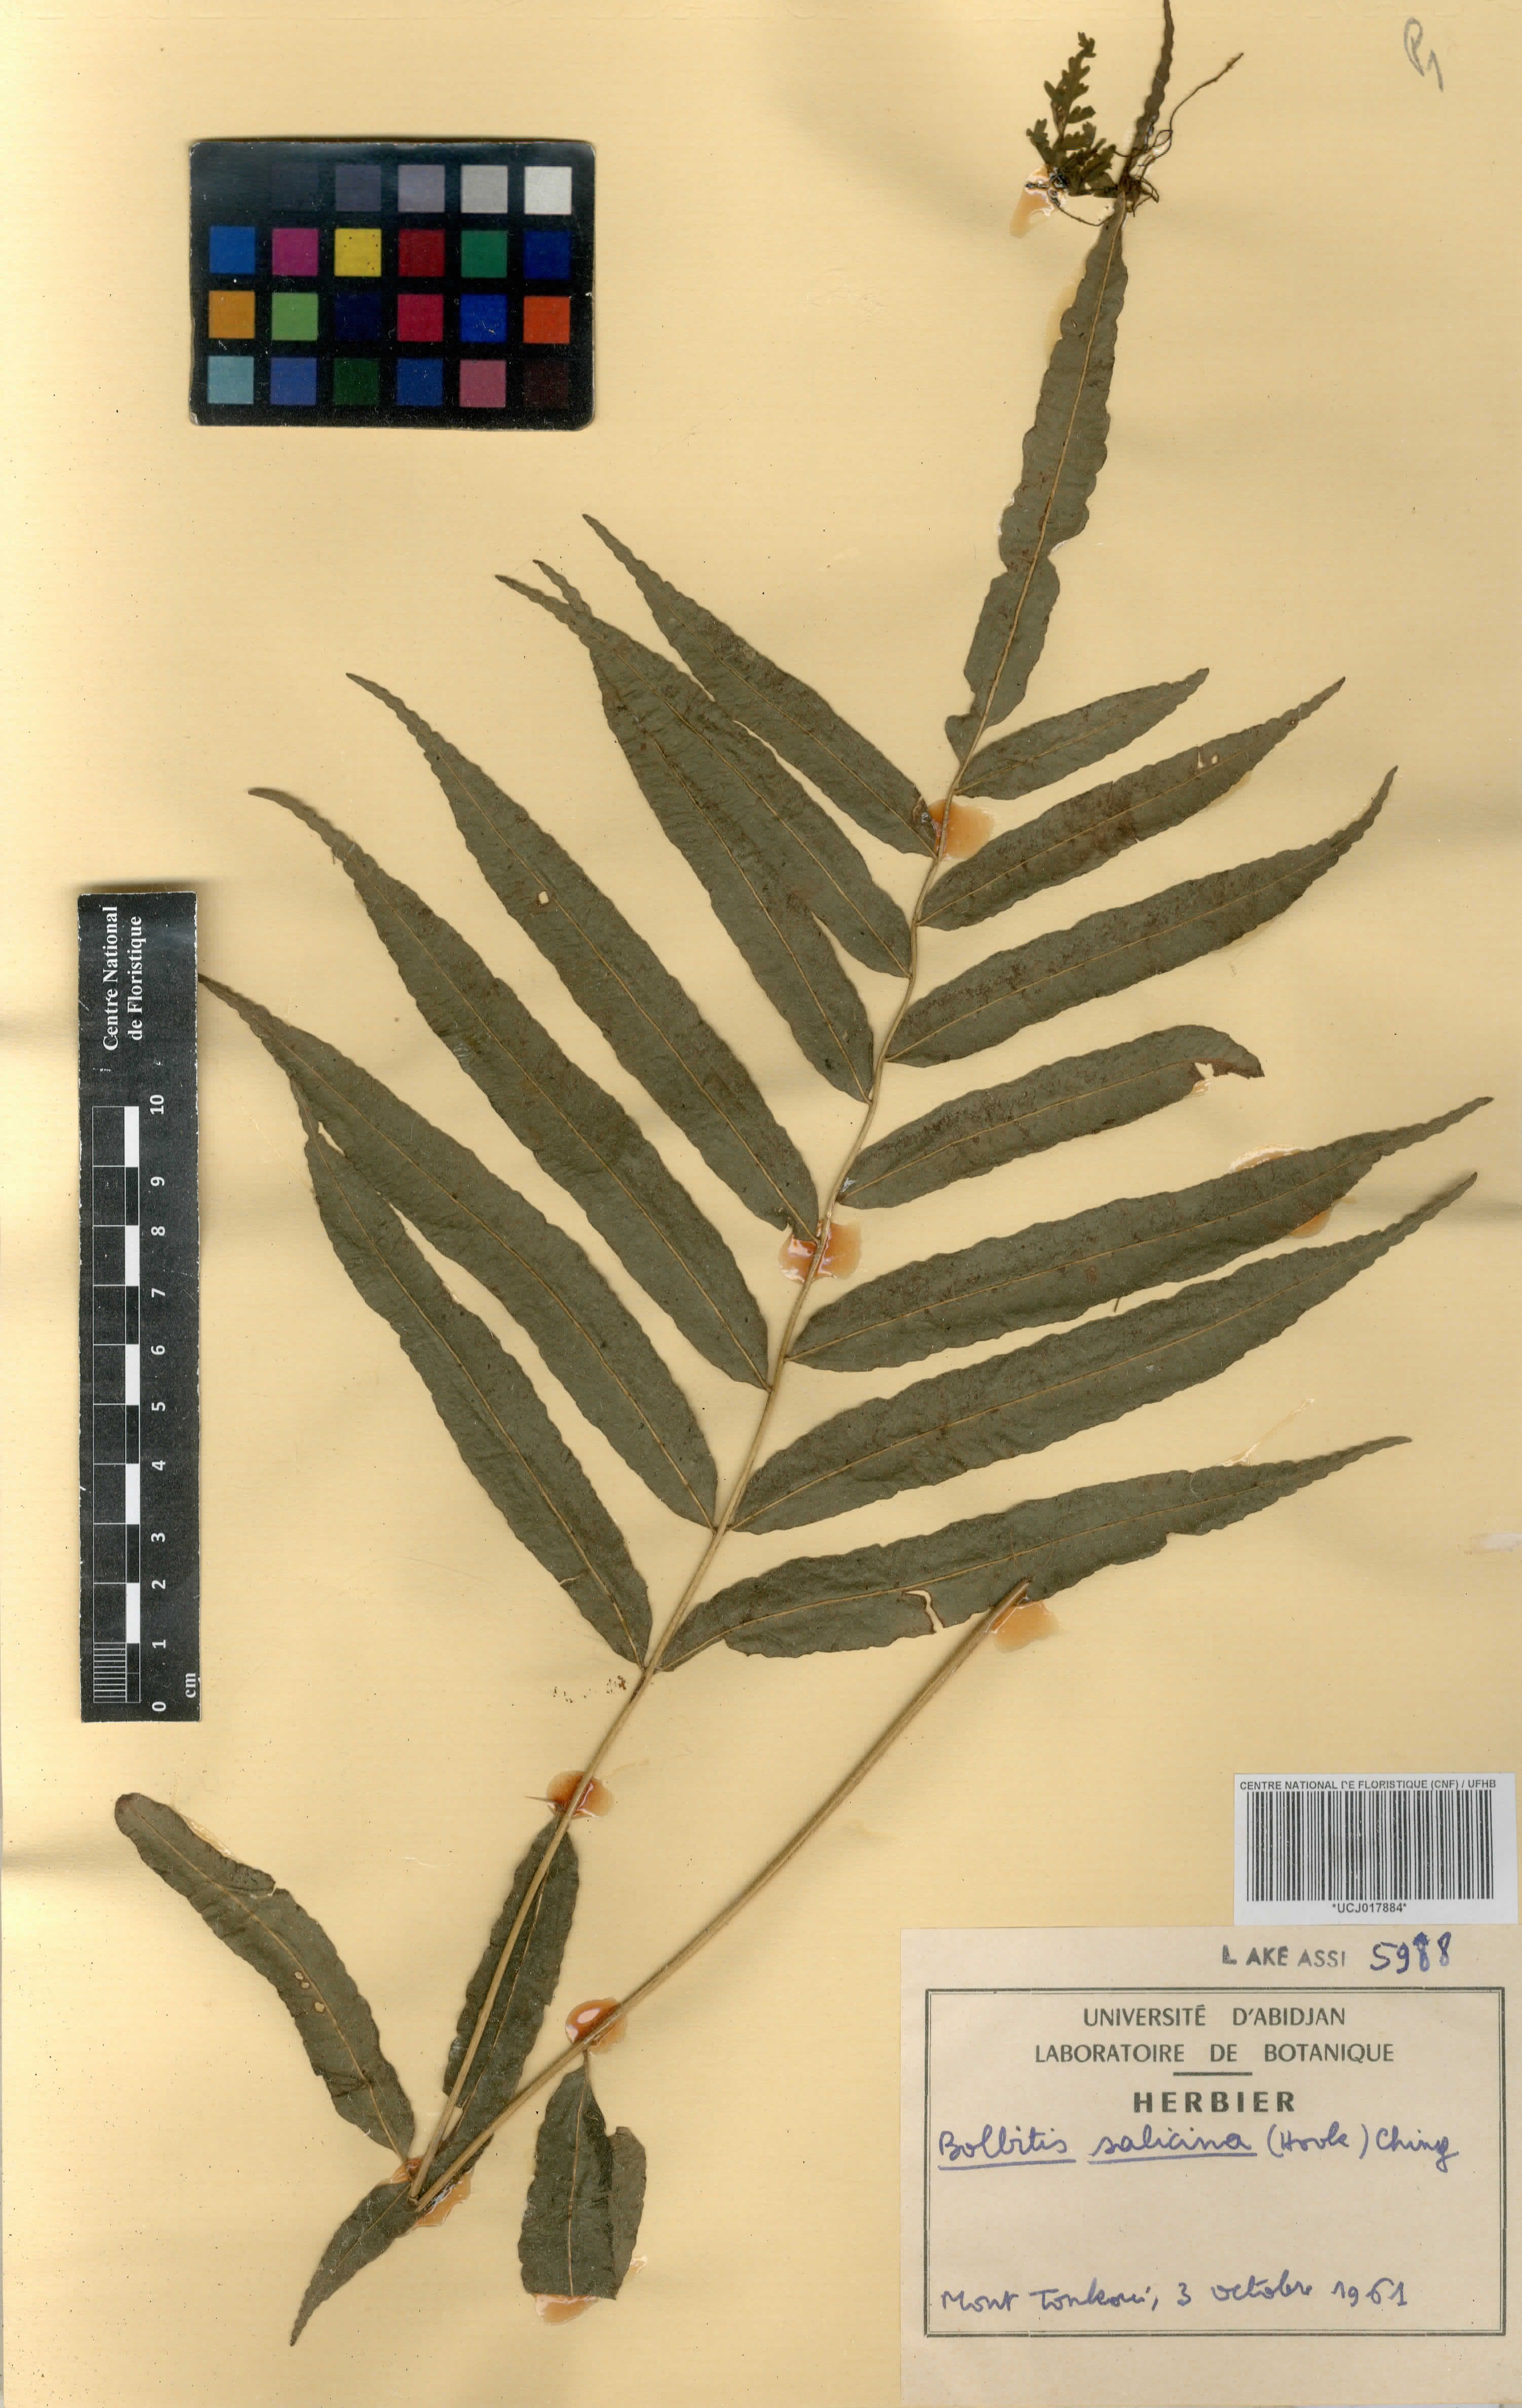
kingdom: Plantae
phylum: Tracheophyta
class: Polypodiopsida
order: Polypodiales
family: Dryopteridaceae
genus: Bolbitis
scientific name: Bolbitis salicina
